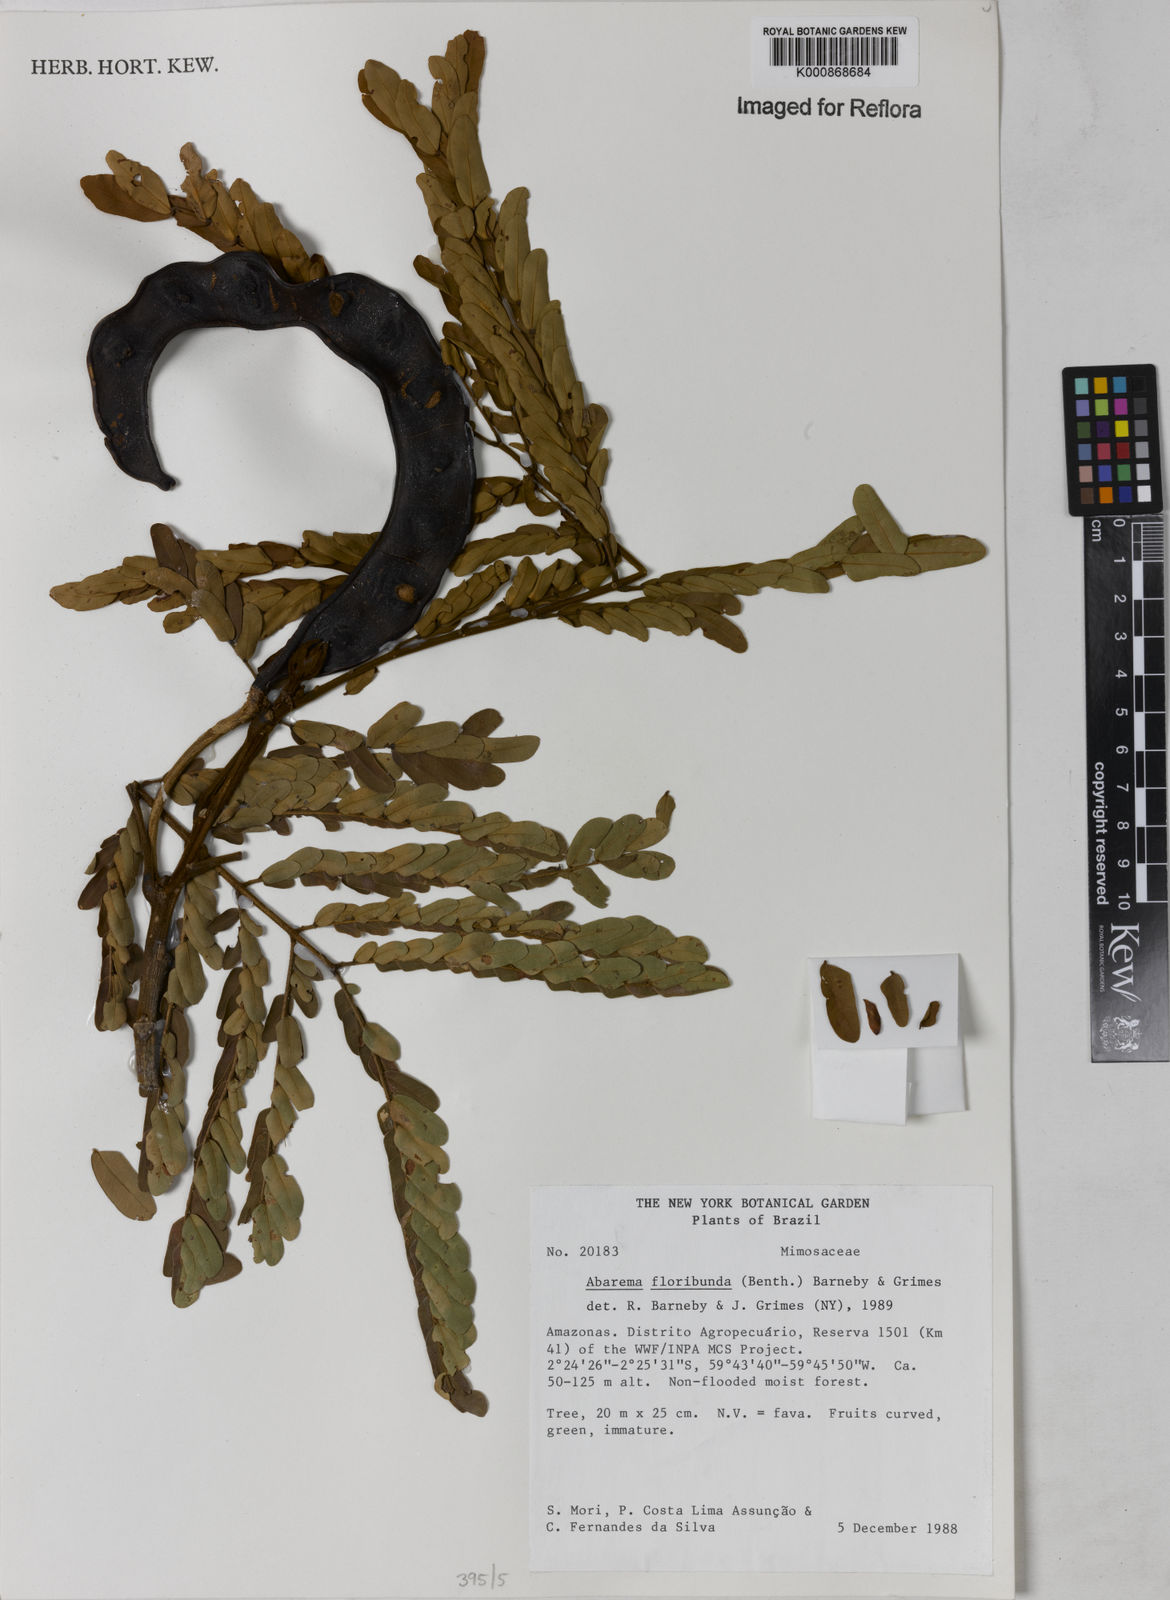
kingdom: Plantae
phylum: Tracheophyta
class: Magnoliopsida
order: Fabales
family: Fabaceae
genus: Jupunba
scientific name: Jupunba floribunda
